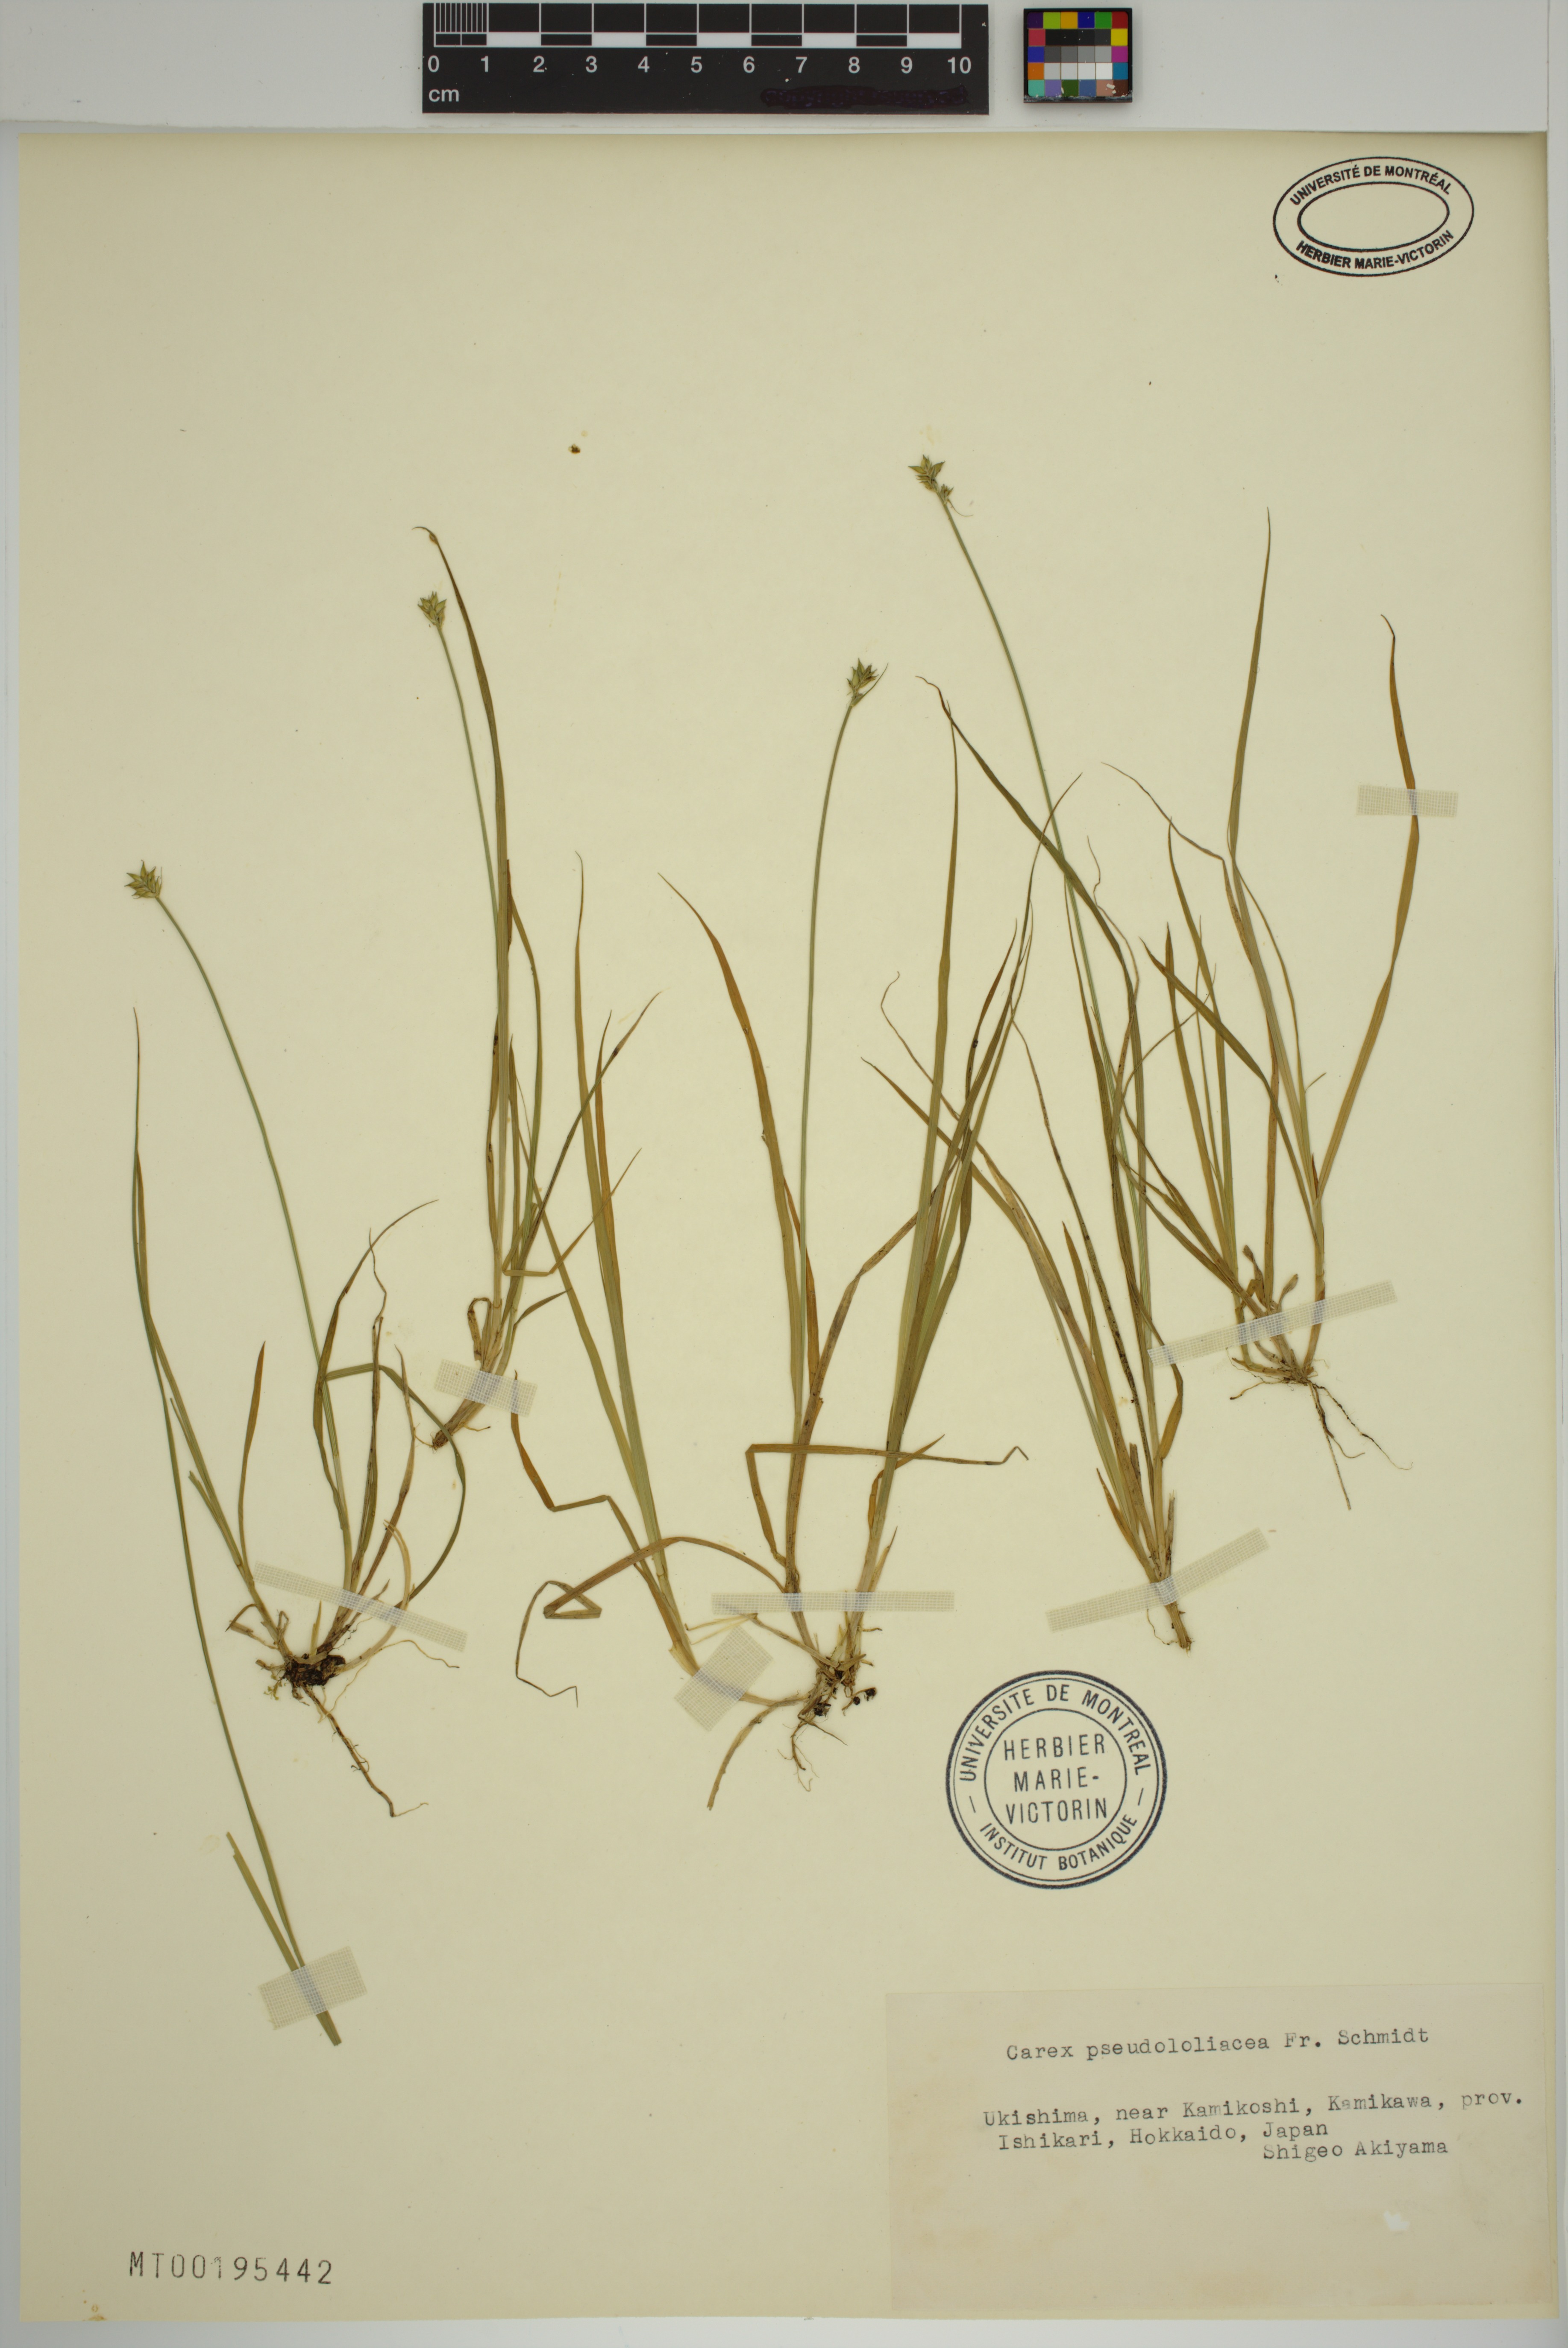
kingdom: Plantae
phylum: Tracheophyta
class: Liliopsida
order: Poales
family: Cyperaceae
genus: Carex
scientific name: Carex pseudololiacea
